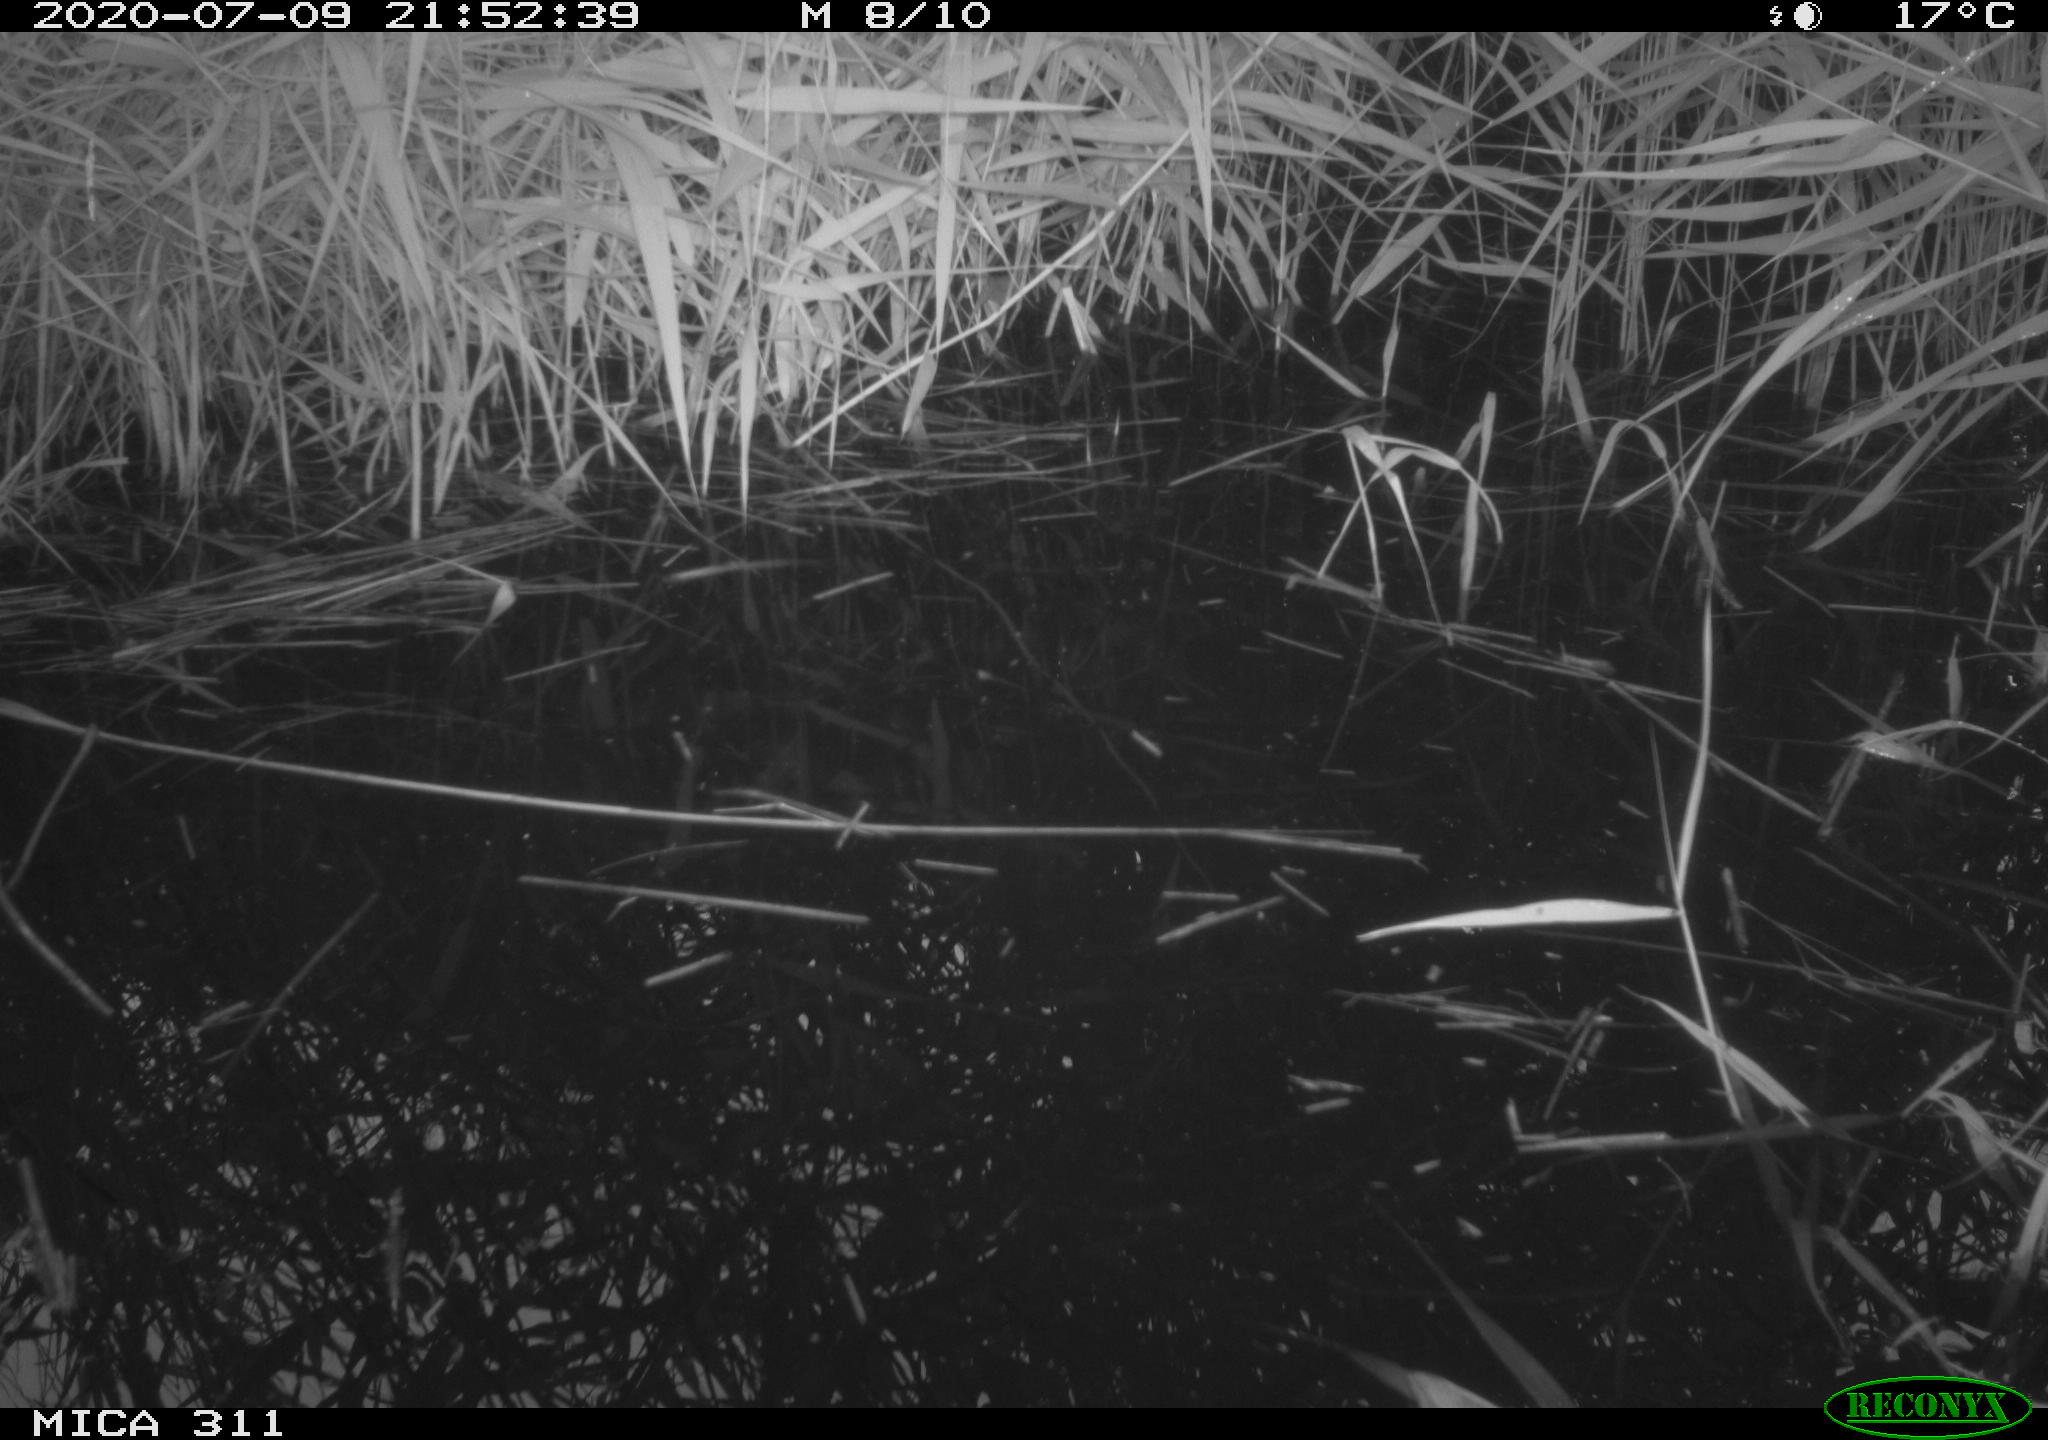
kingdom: Animalia
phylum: Chordata
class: Aves
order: Anseriformes
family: Anatidae
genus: Anas
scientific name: Anas platyrhynchos
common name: Mallard
